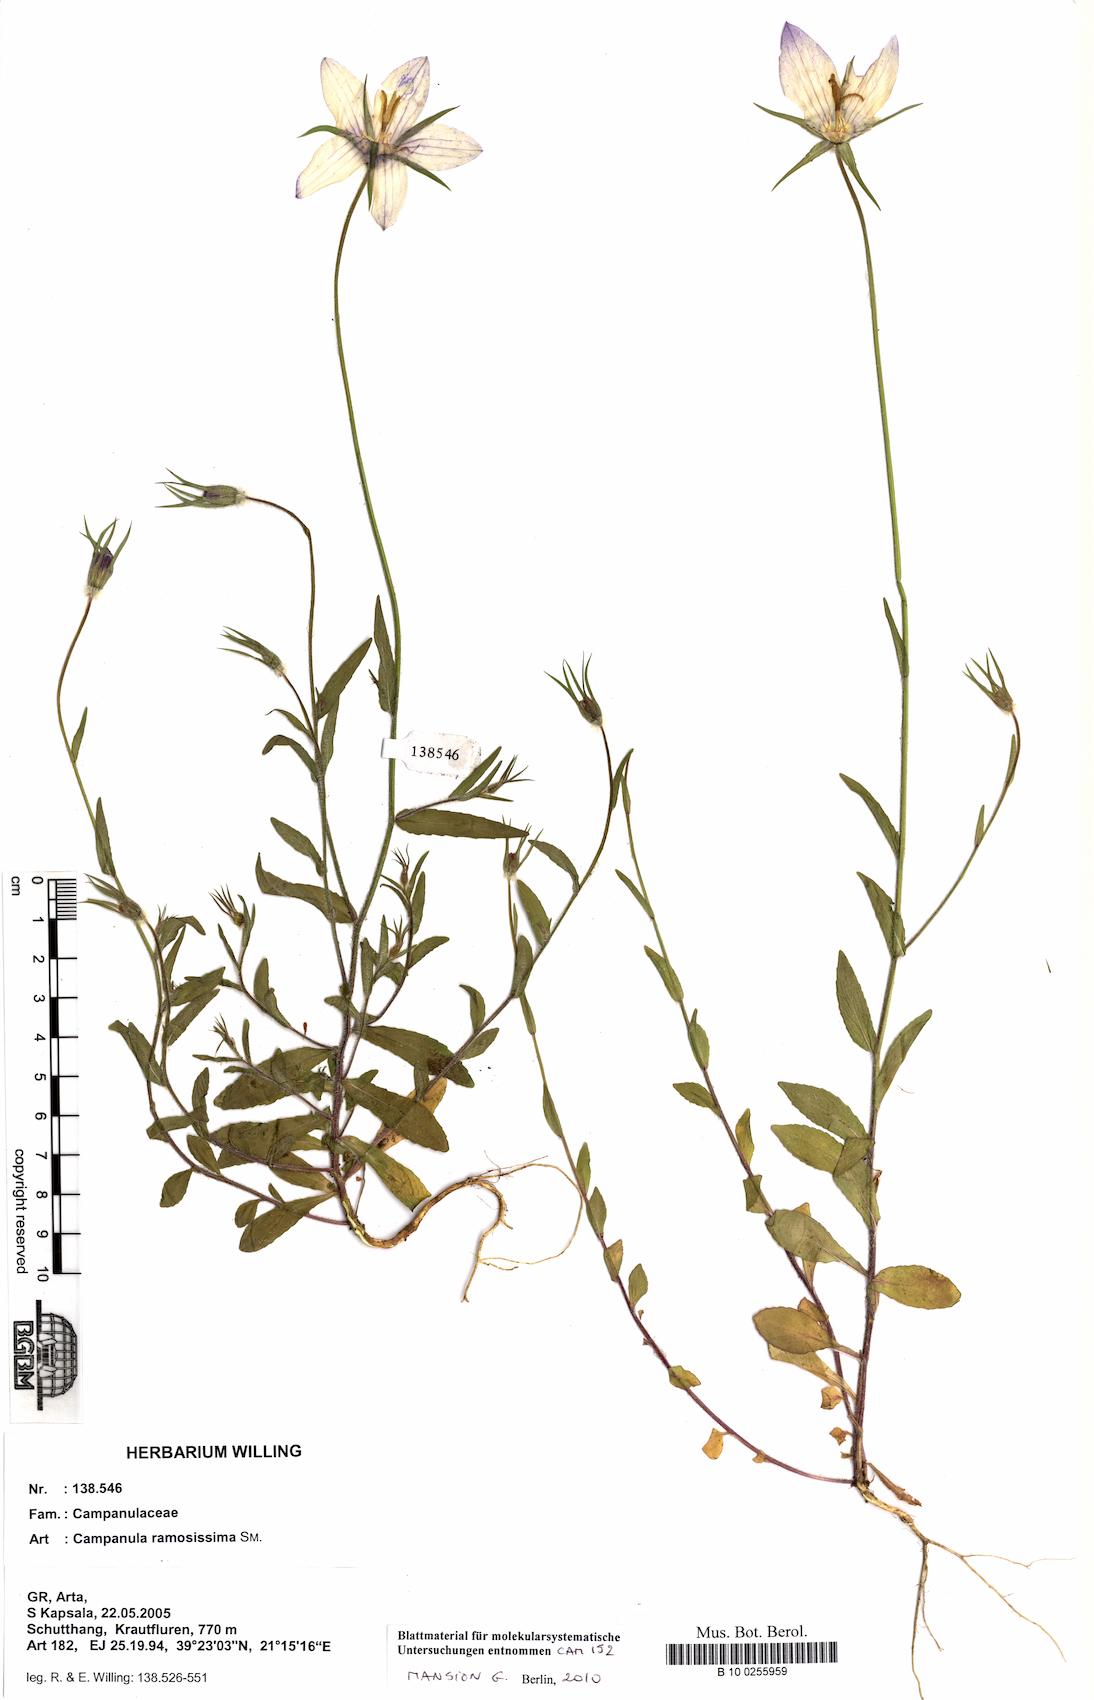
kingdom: Plantae
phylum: Tracheophyta
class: Magnoliopsida
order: Asterales
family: Campanulaceae
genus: Campanula
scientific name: Campanula ramosissima
